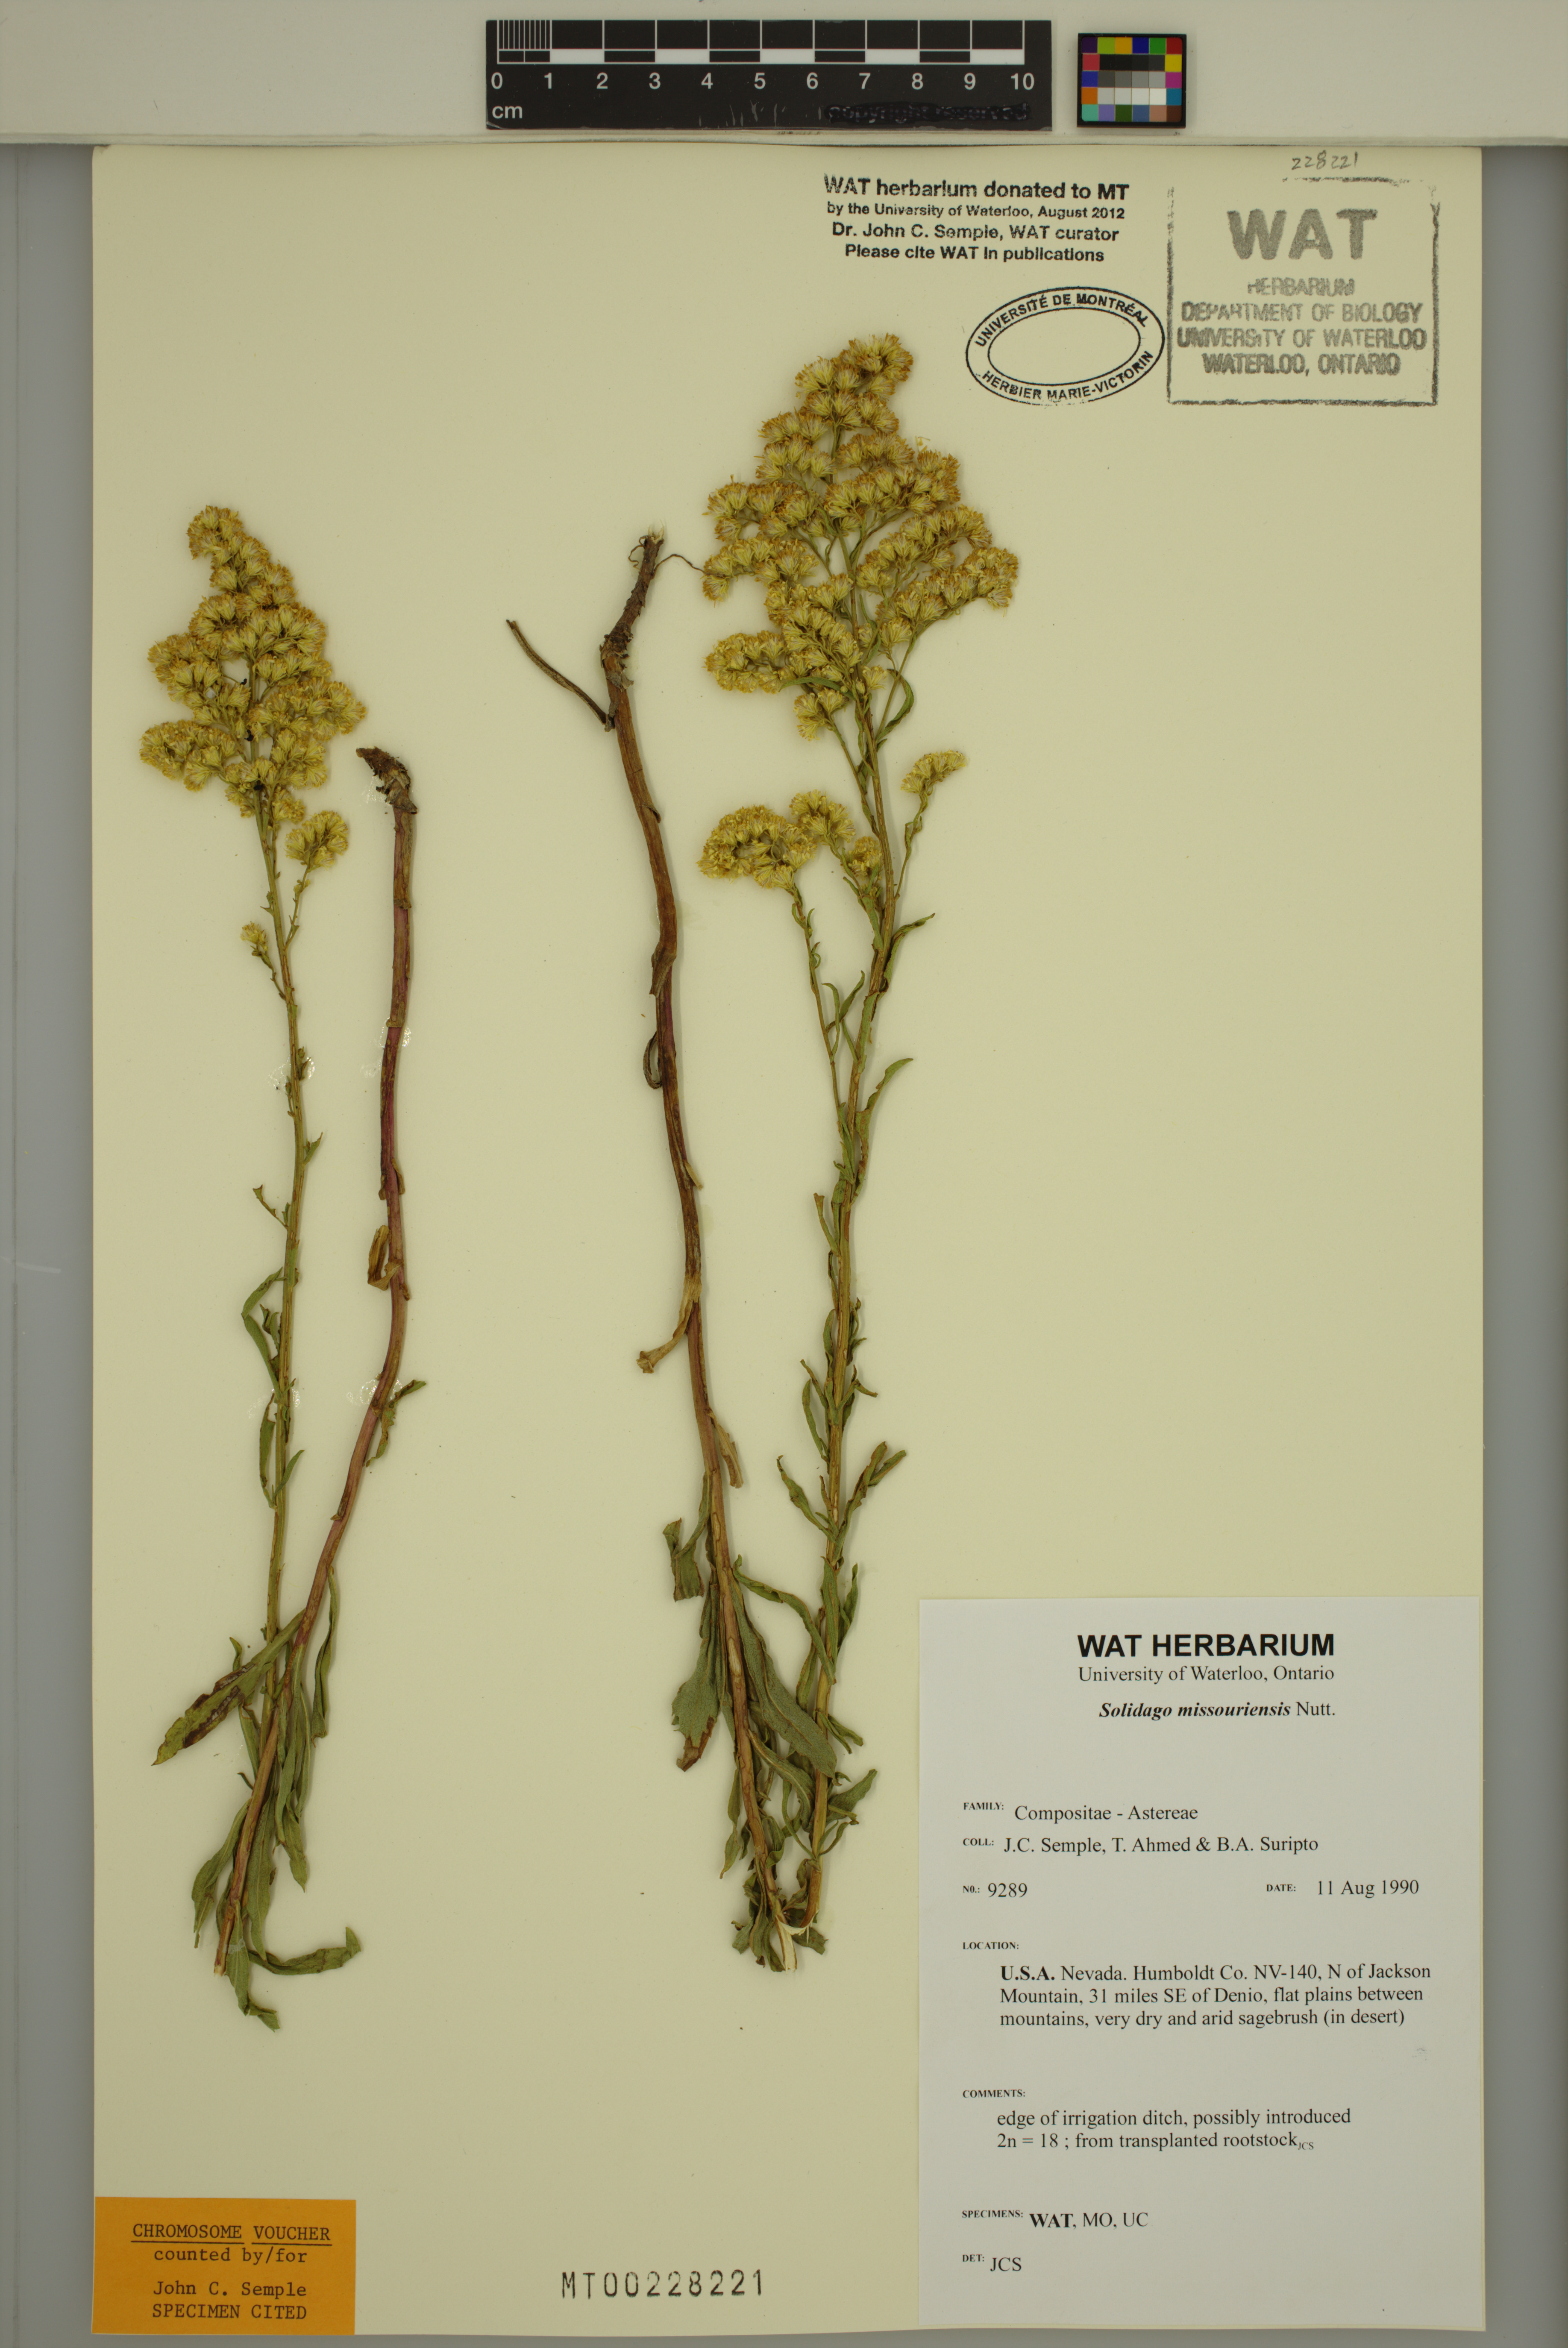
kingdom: Plantae
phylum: Tracheophyta
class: Magnoliopsida
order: Asterales
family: Asteraceae
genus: Solidago
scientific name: Solidago missouriensis
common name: Prairie goldenrod
